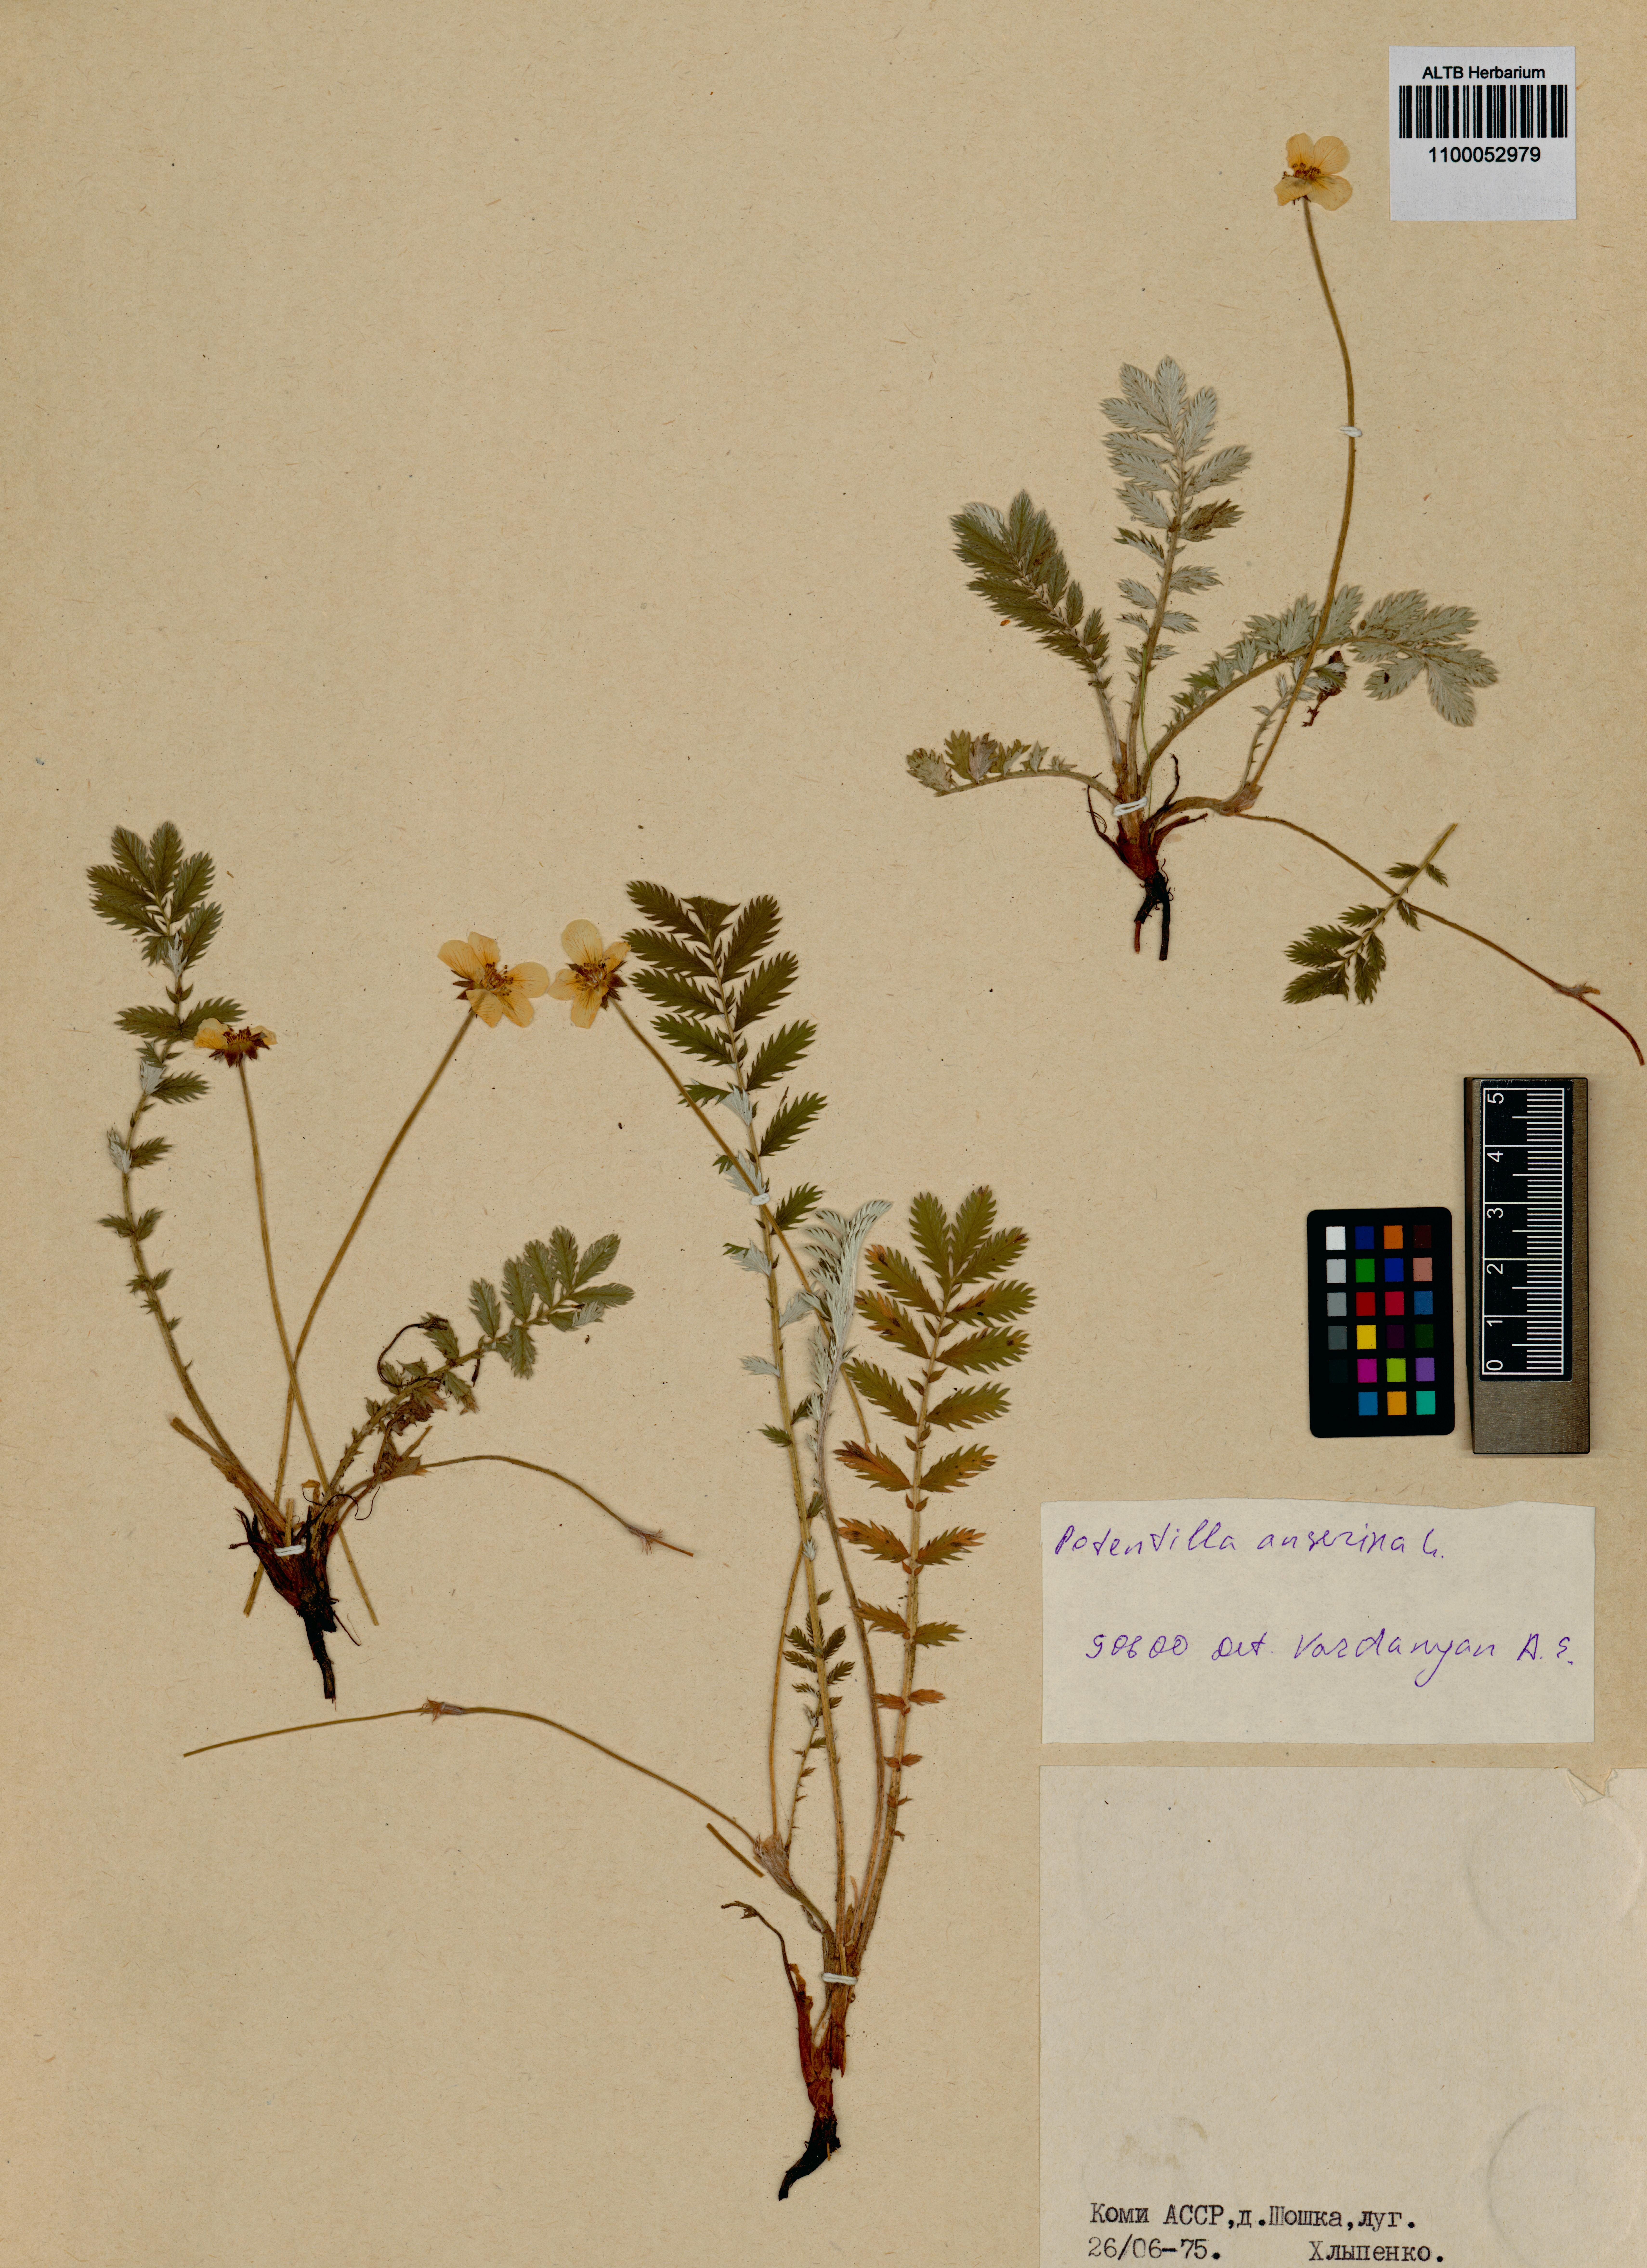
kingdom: Plantae
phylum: Tracheophyta
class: Magnoliopsida
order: Rosales
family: Rosaceae
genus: Argentina
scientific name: Argentina anserina
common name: Common silverweed
